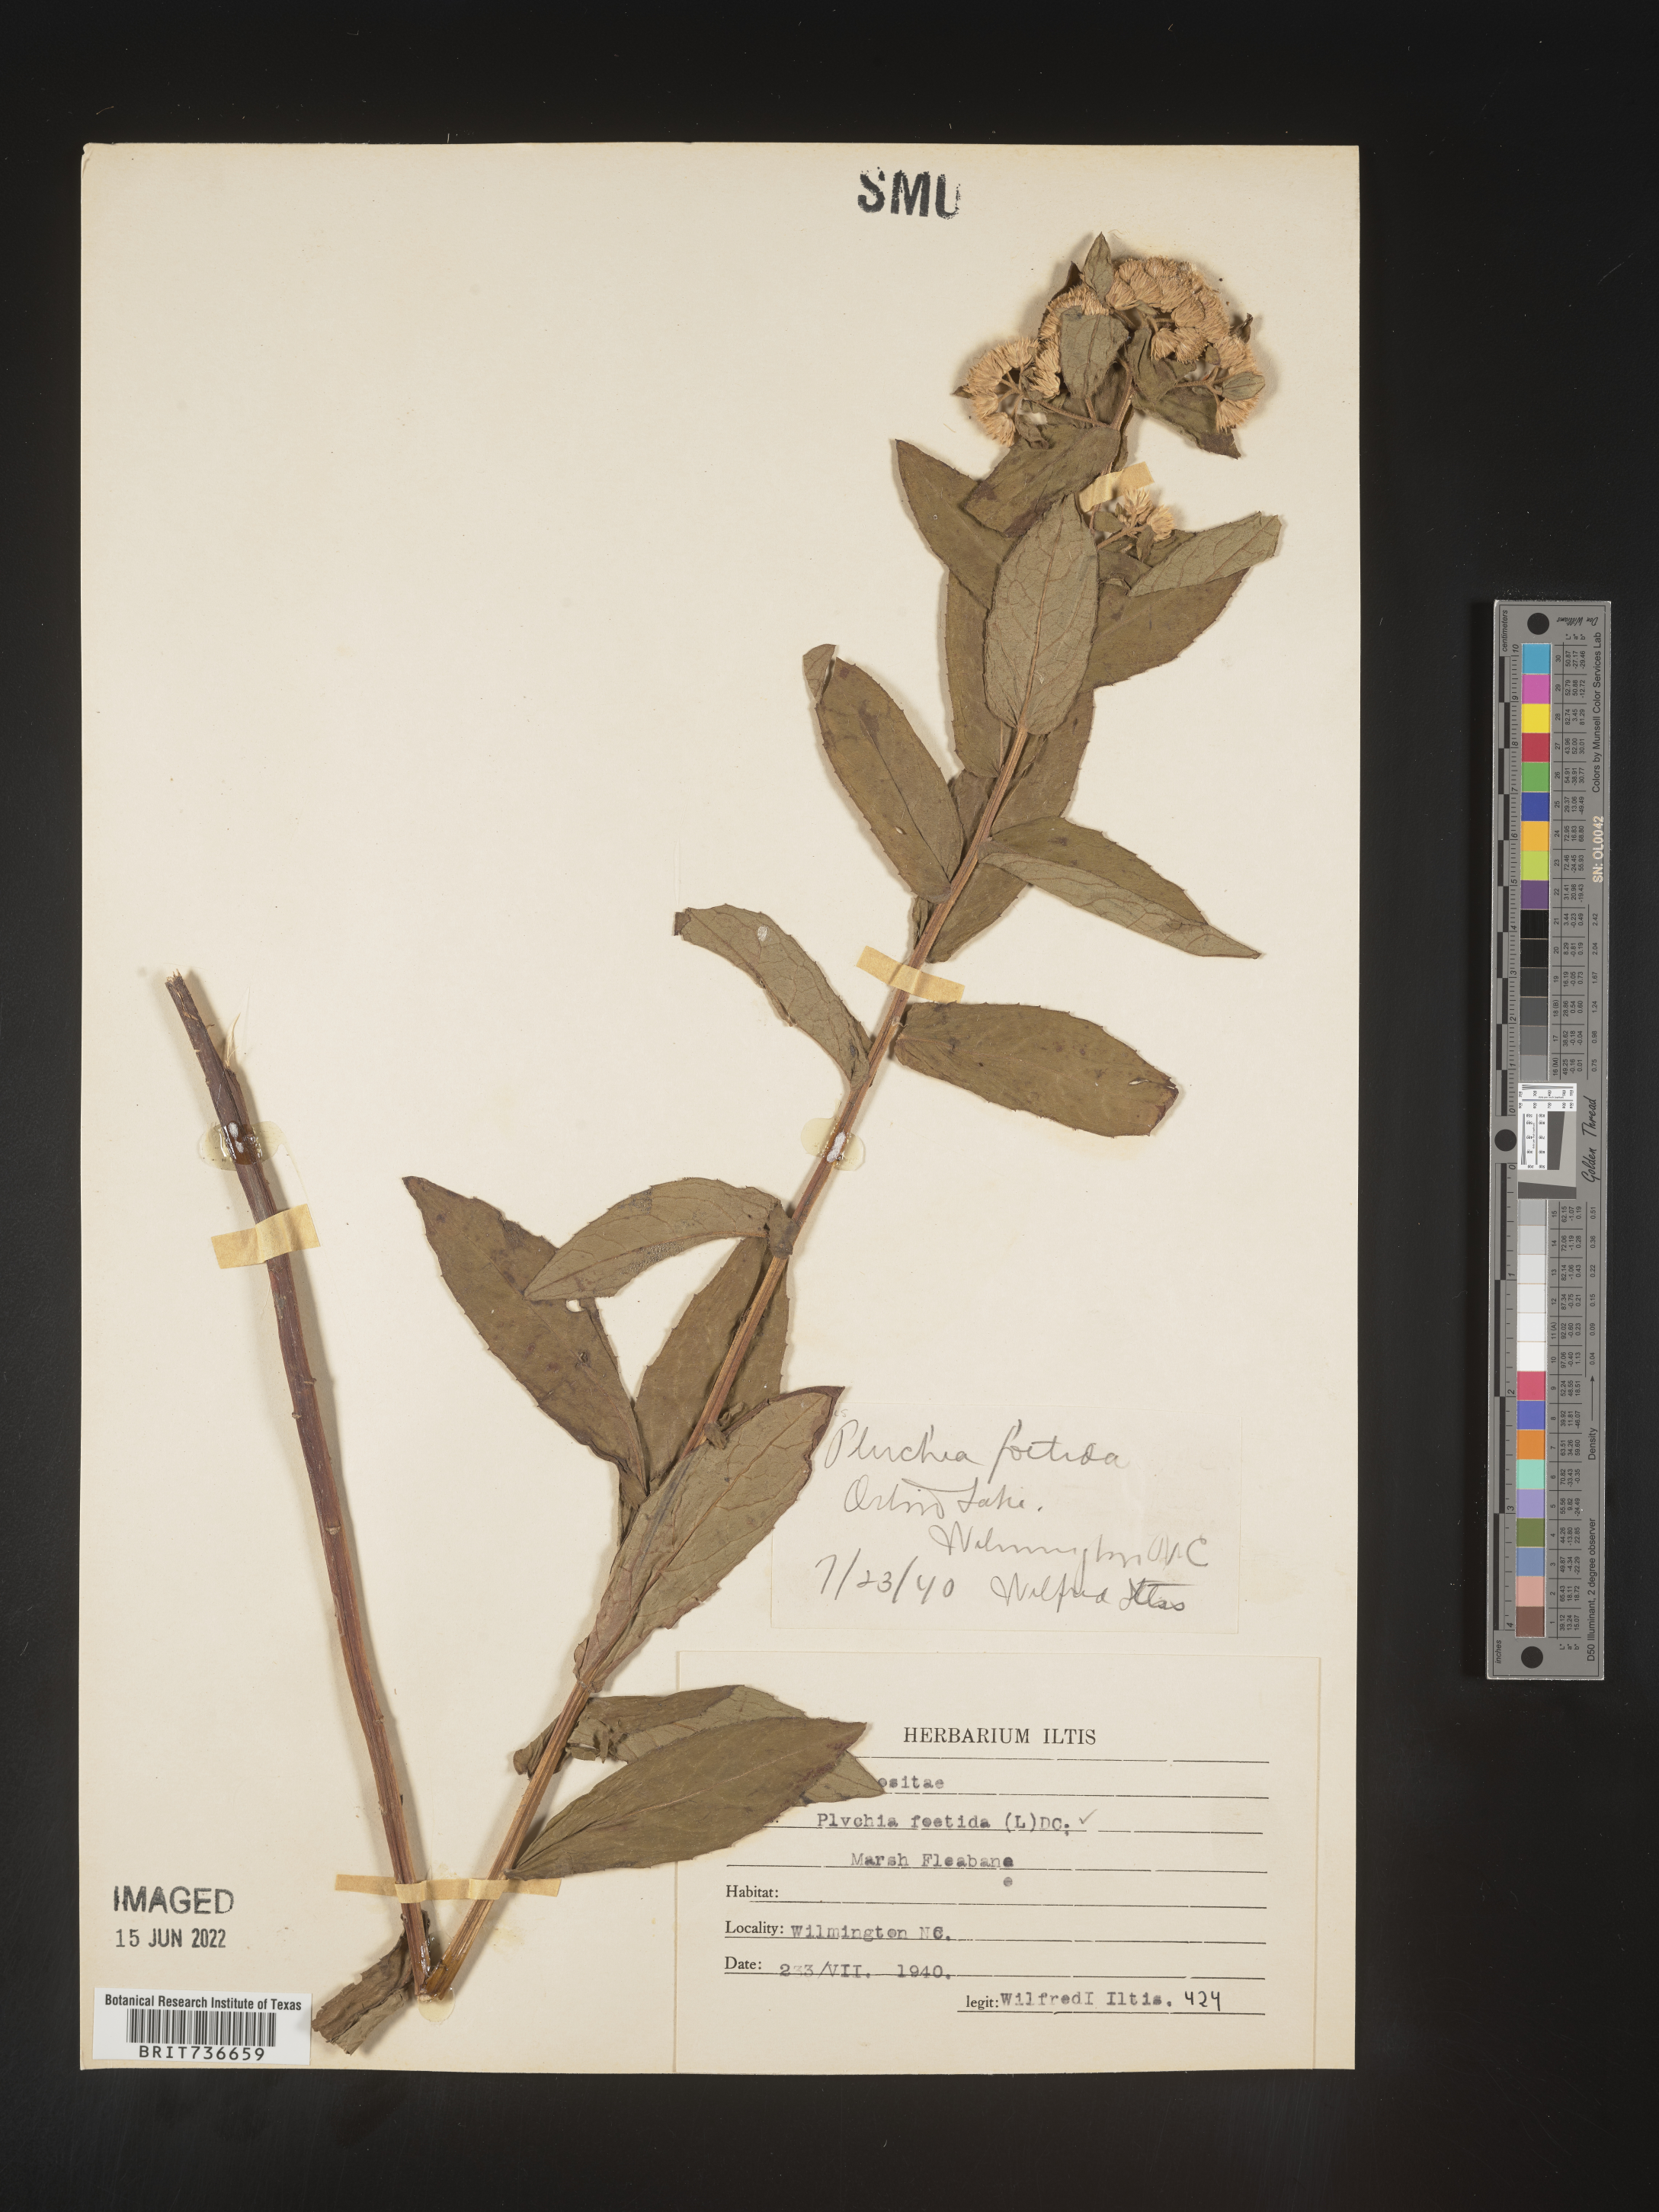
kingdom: Plantae
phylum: Tracheophyta
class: Magnoliopsida
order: Asterales
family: Asteraceae
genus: Pluchea
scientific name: Pluchea foetida
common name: Stinking camphorweed
